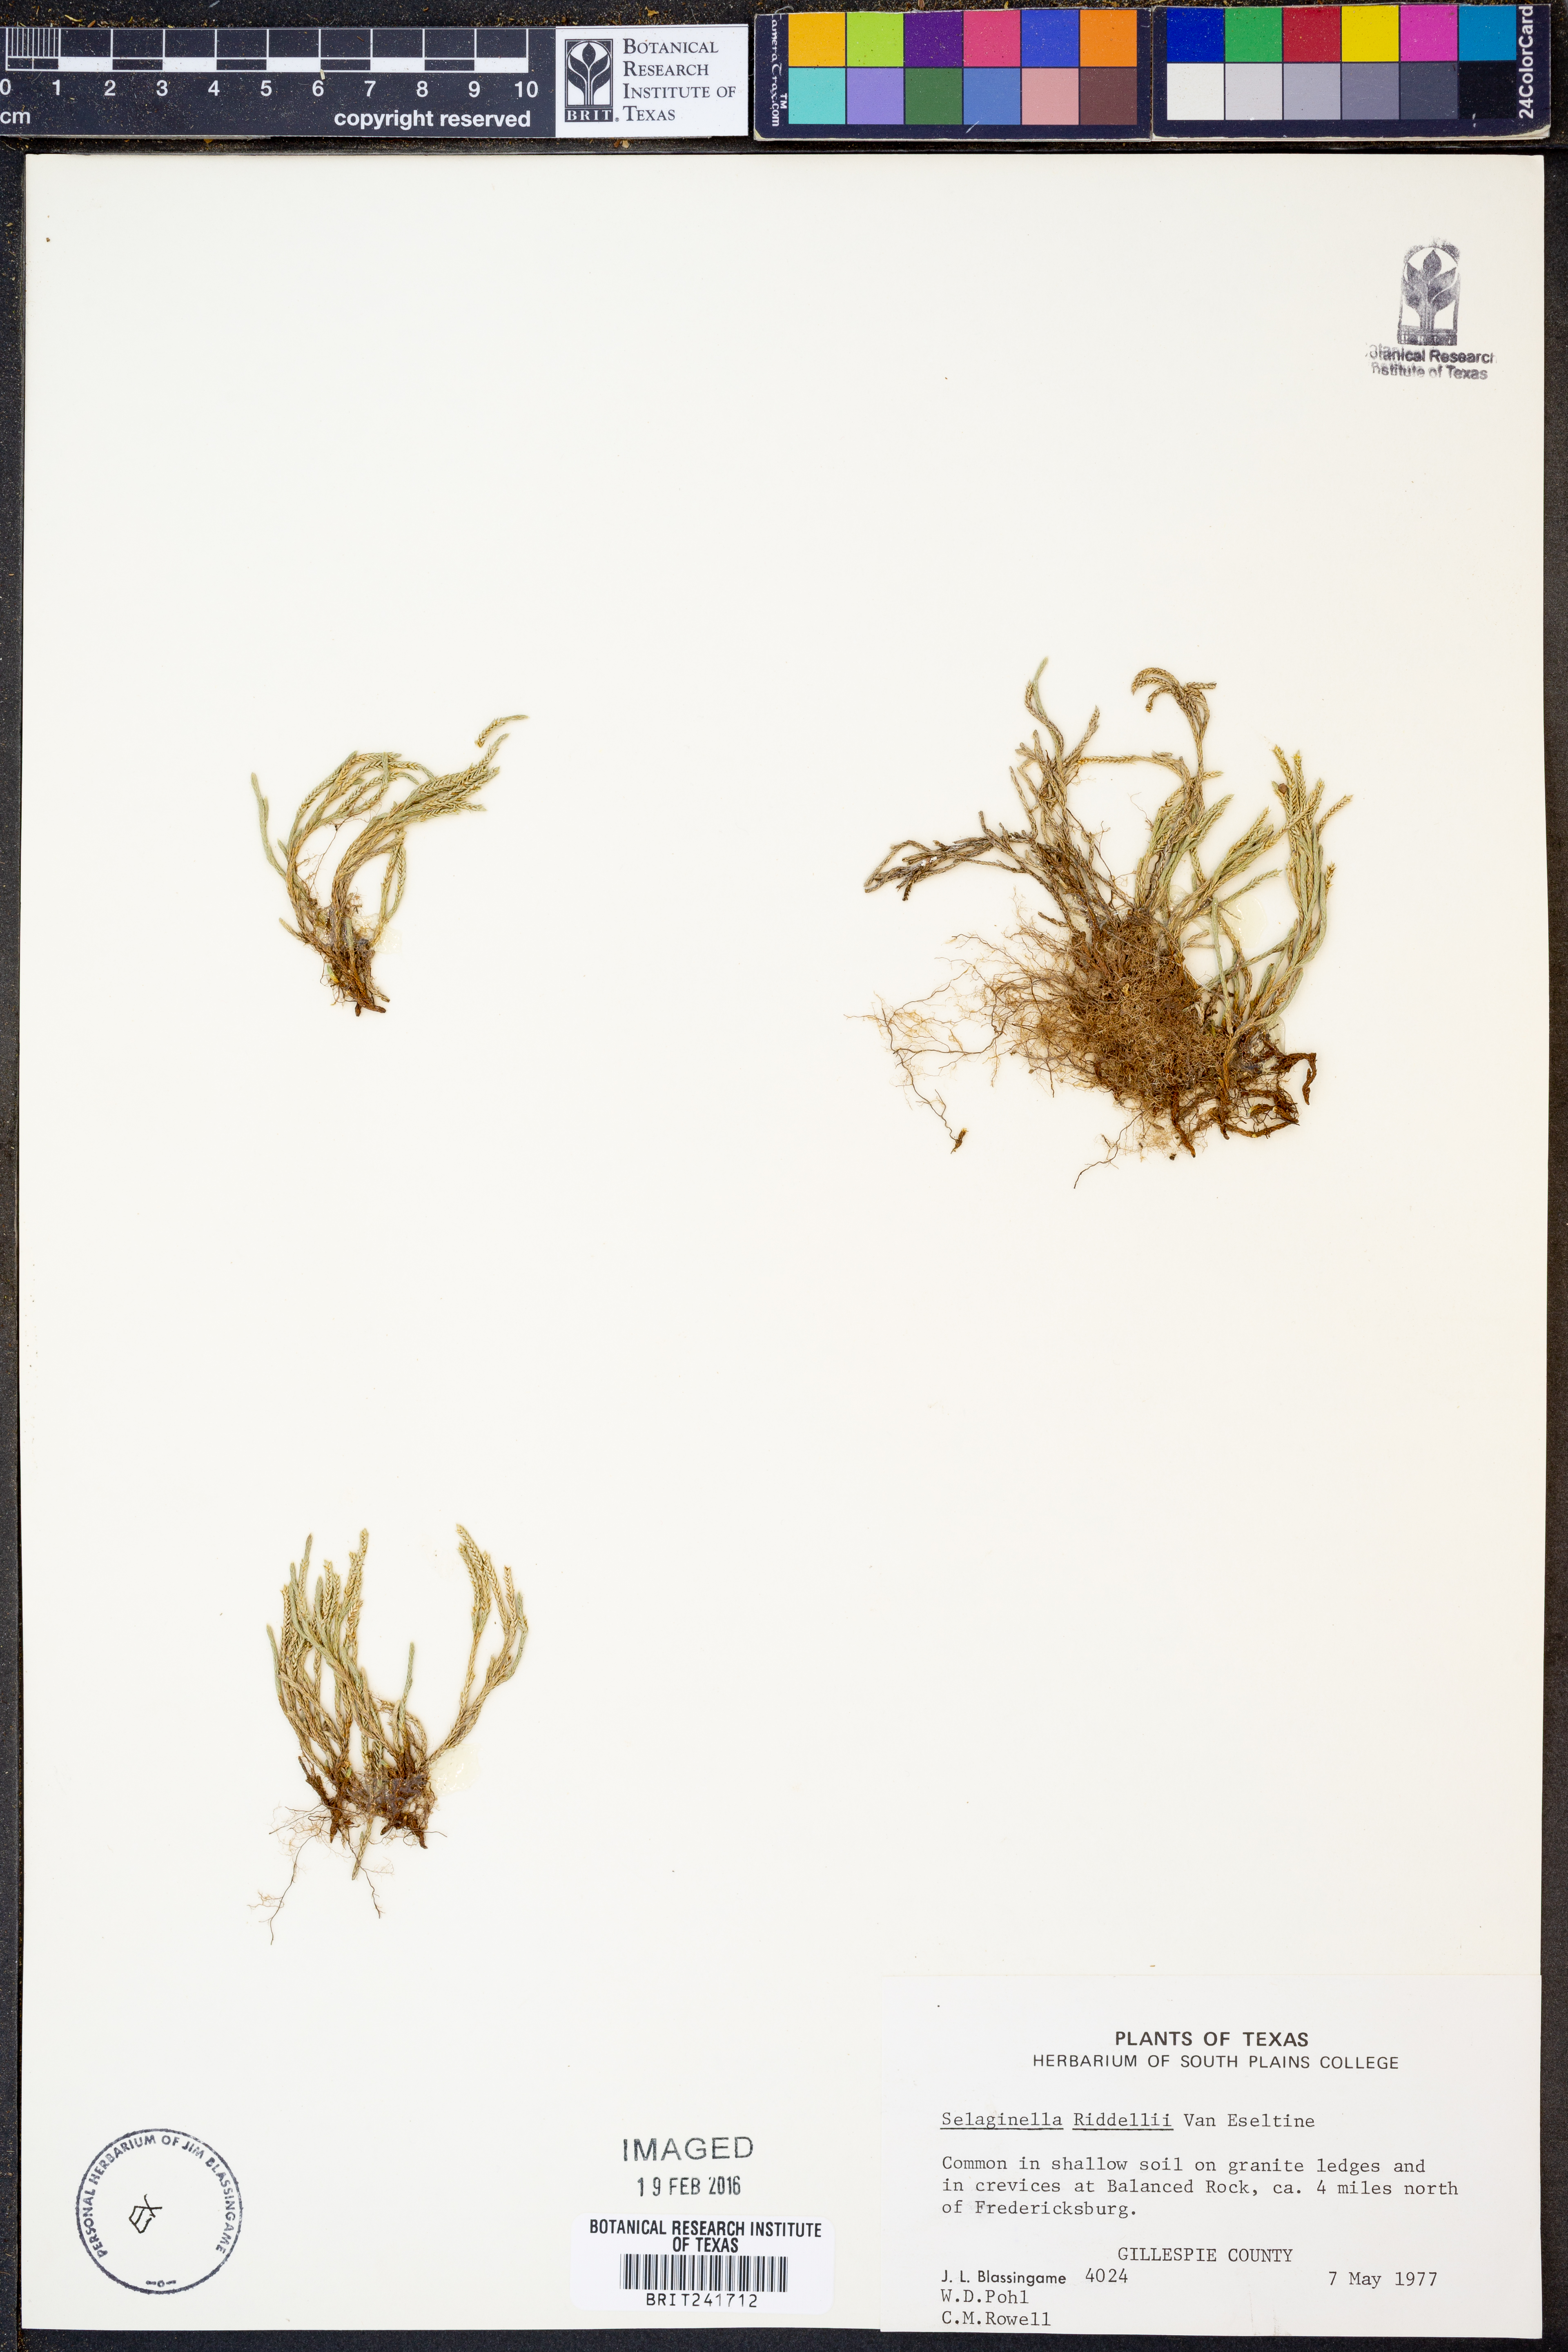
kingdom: Plantae
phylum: Tracheophyta
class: Lycopodiopsida
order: Selaginellales
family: Selaginellaceae
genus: Selaginella
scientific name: Selaginella corallina
